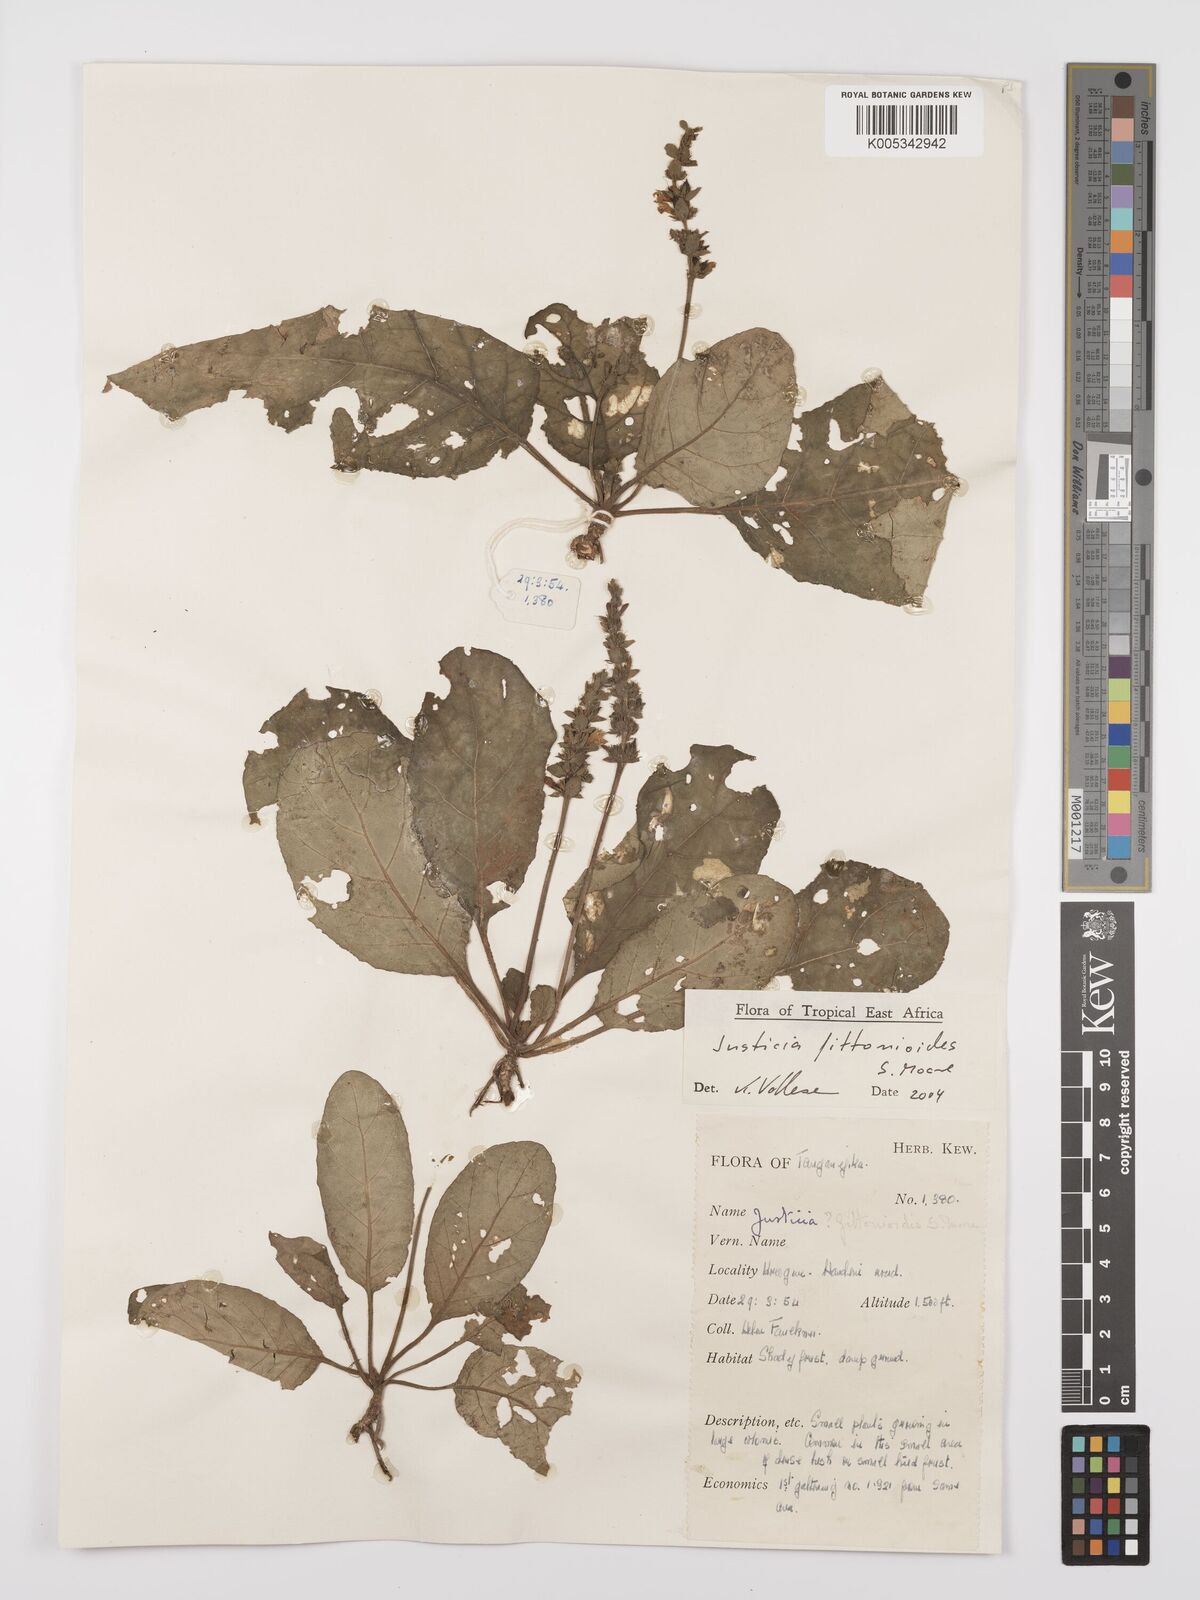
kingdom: Plantae
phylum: Tracheophyta
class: Magnoliopsida
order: Lamiales
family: Acanthaceae
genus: Justicia
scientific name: Justicia
